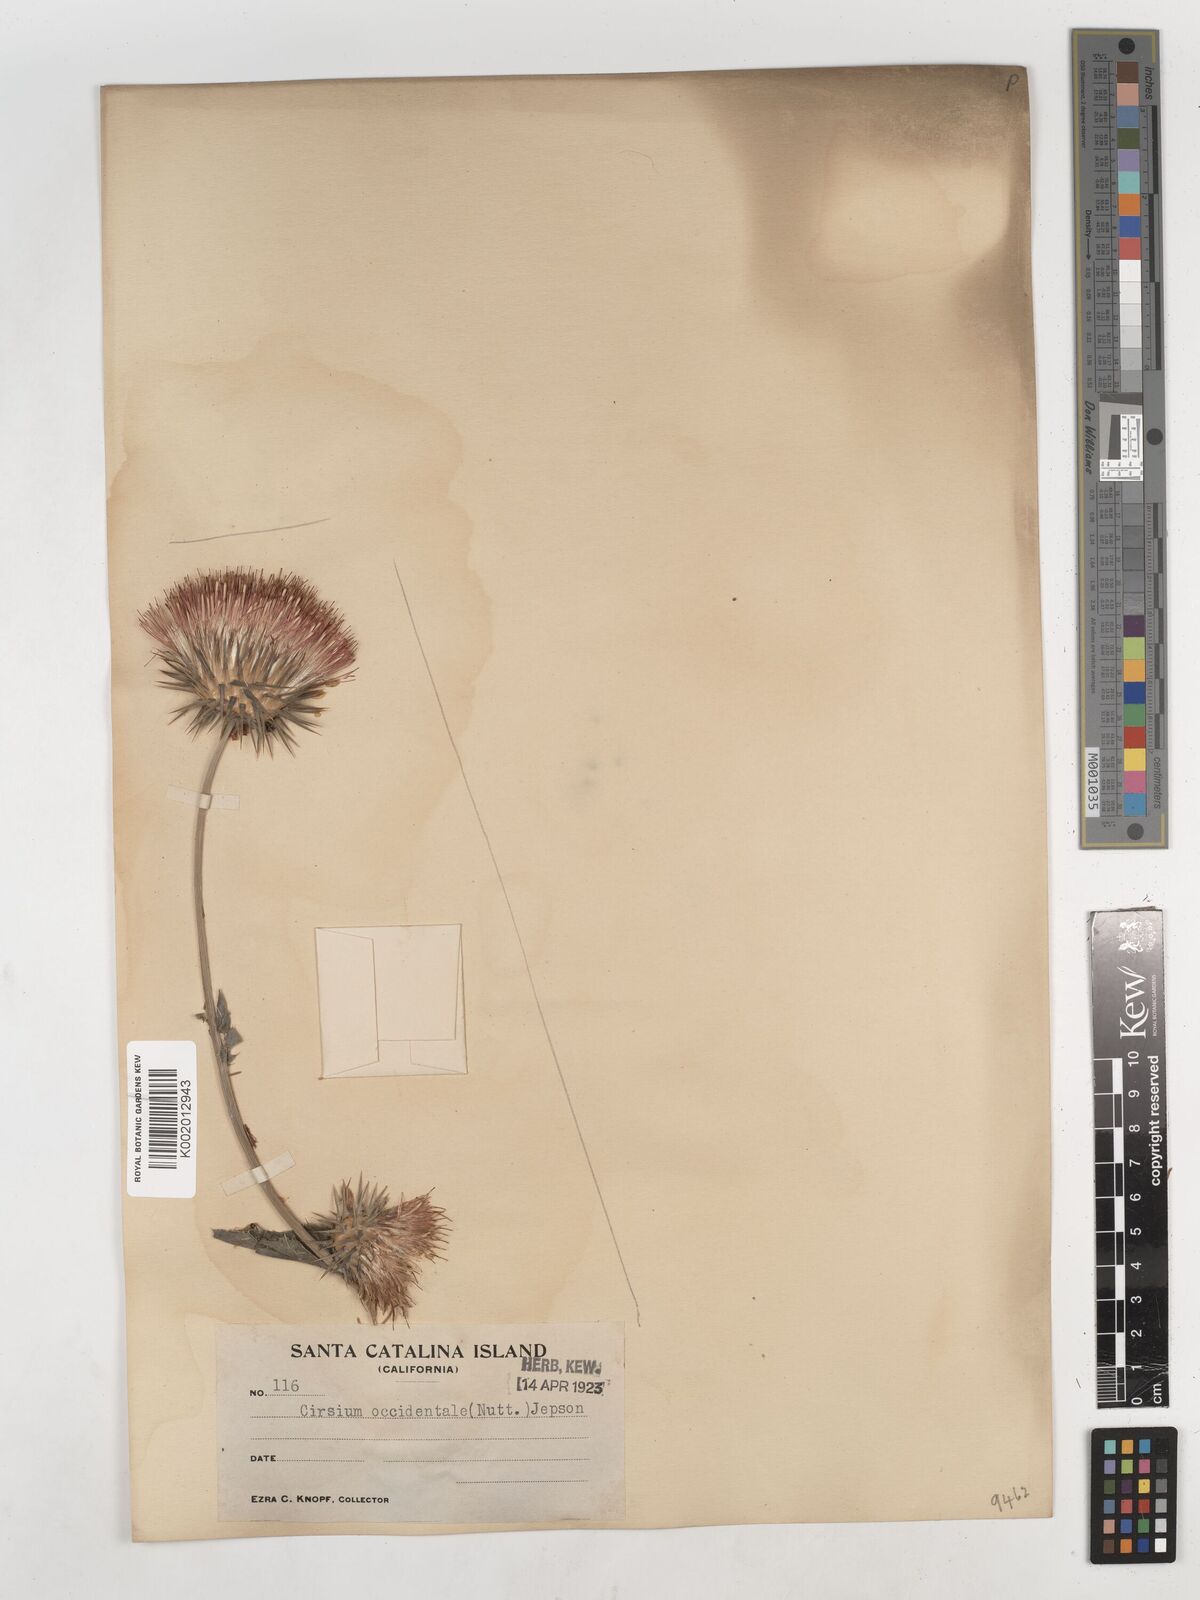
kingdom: Plantae
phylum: Tracheophyta
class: Magnoliopsida
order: Asterales
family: Asteraceae
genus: Cirsium
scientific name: Cirsium occidentale
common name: Western thistle
